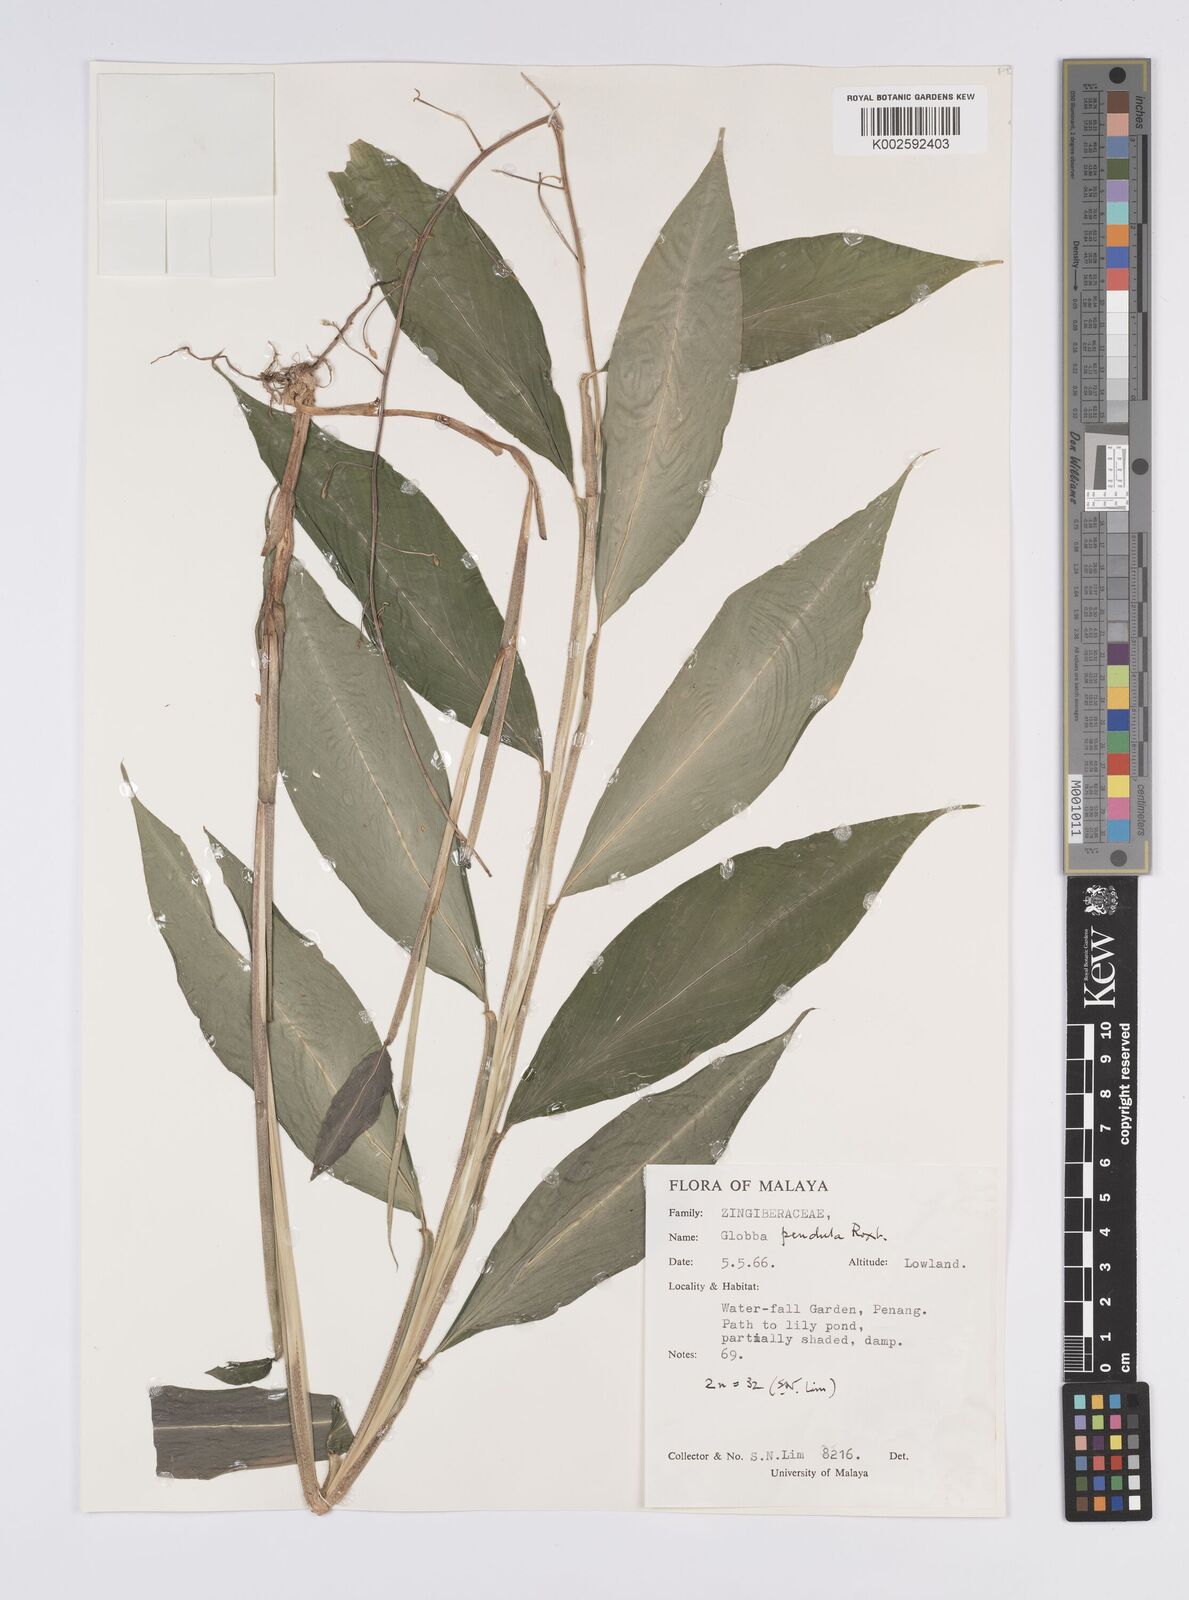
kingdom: Plantae
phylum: Tracheophyta
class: Liliopsida
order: Zingiberales
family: Zingiberaceae
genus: Globba
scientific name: Globba pendula
